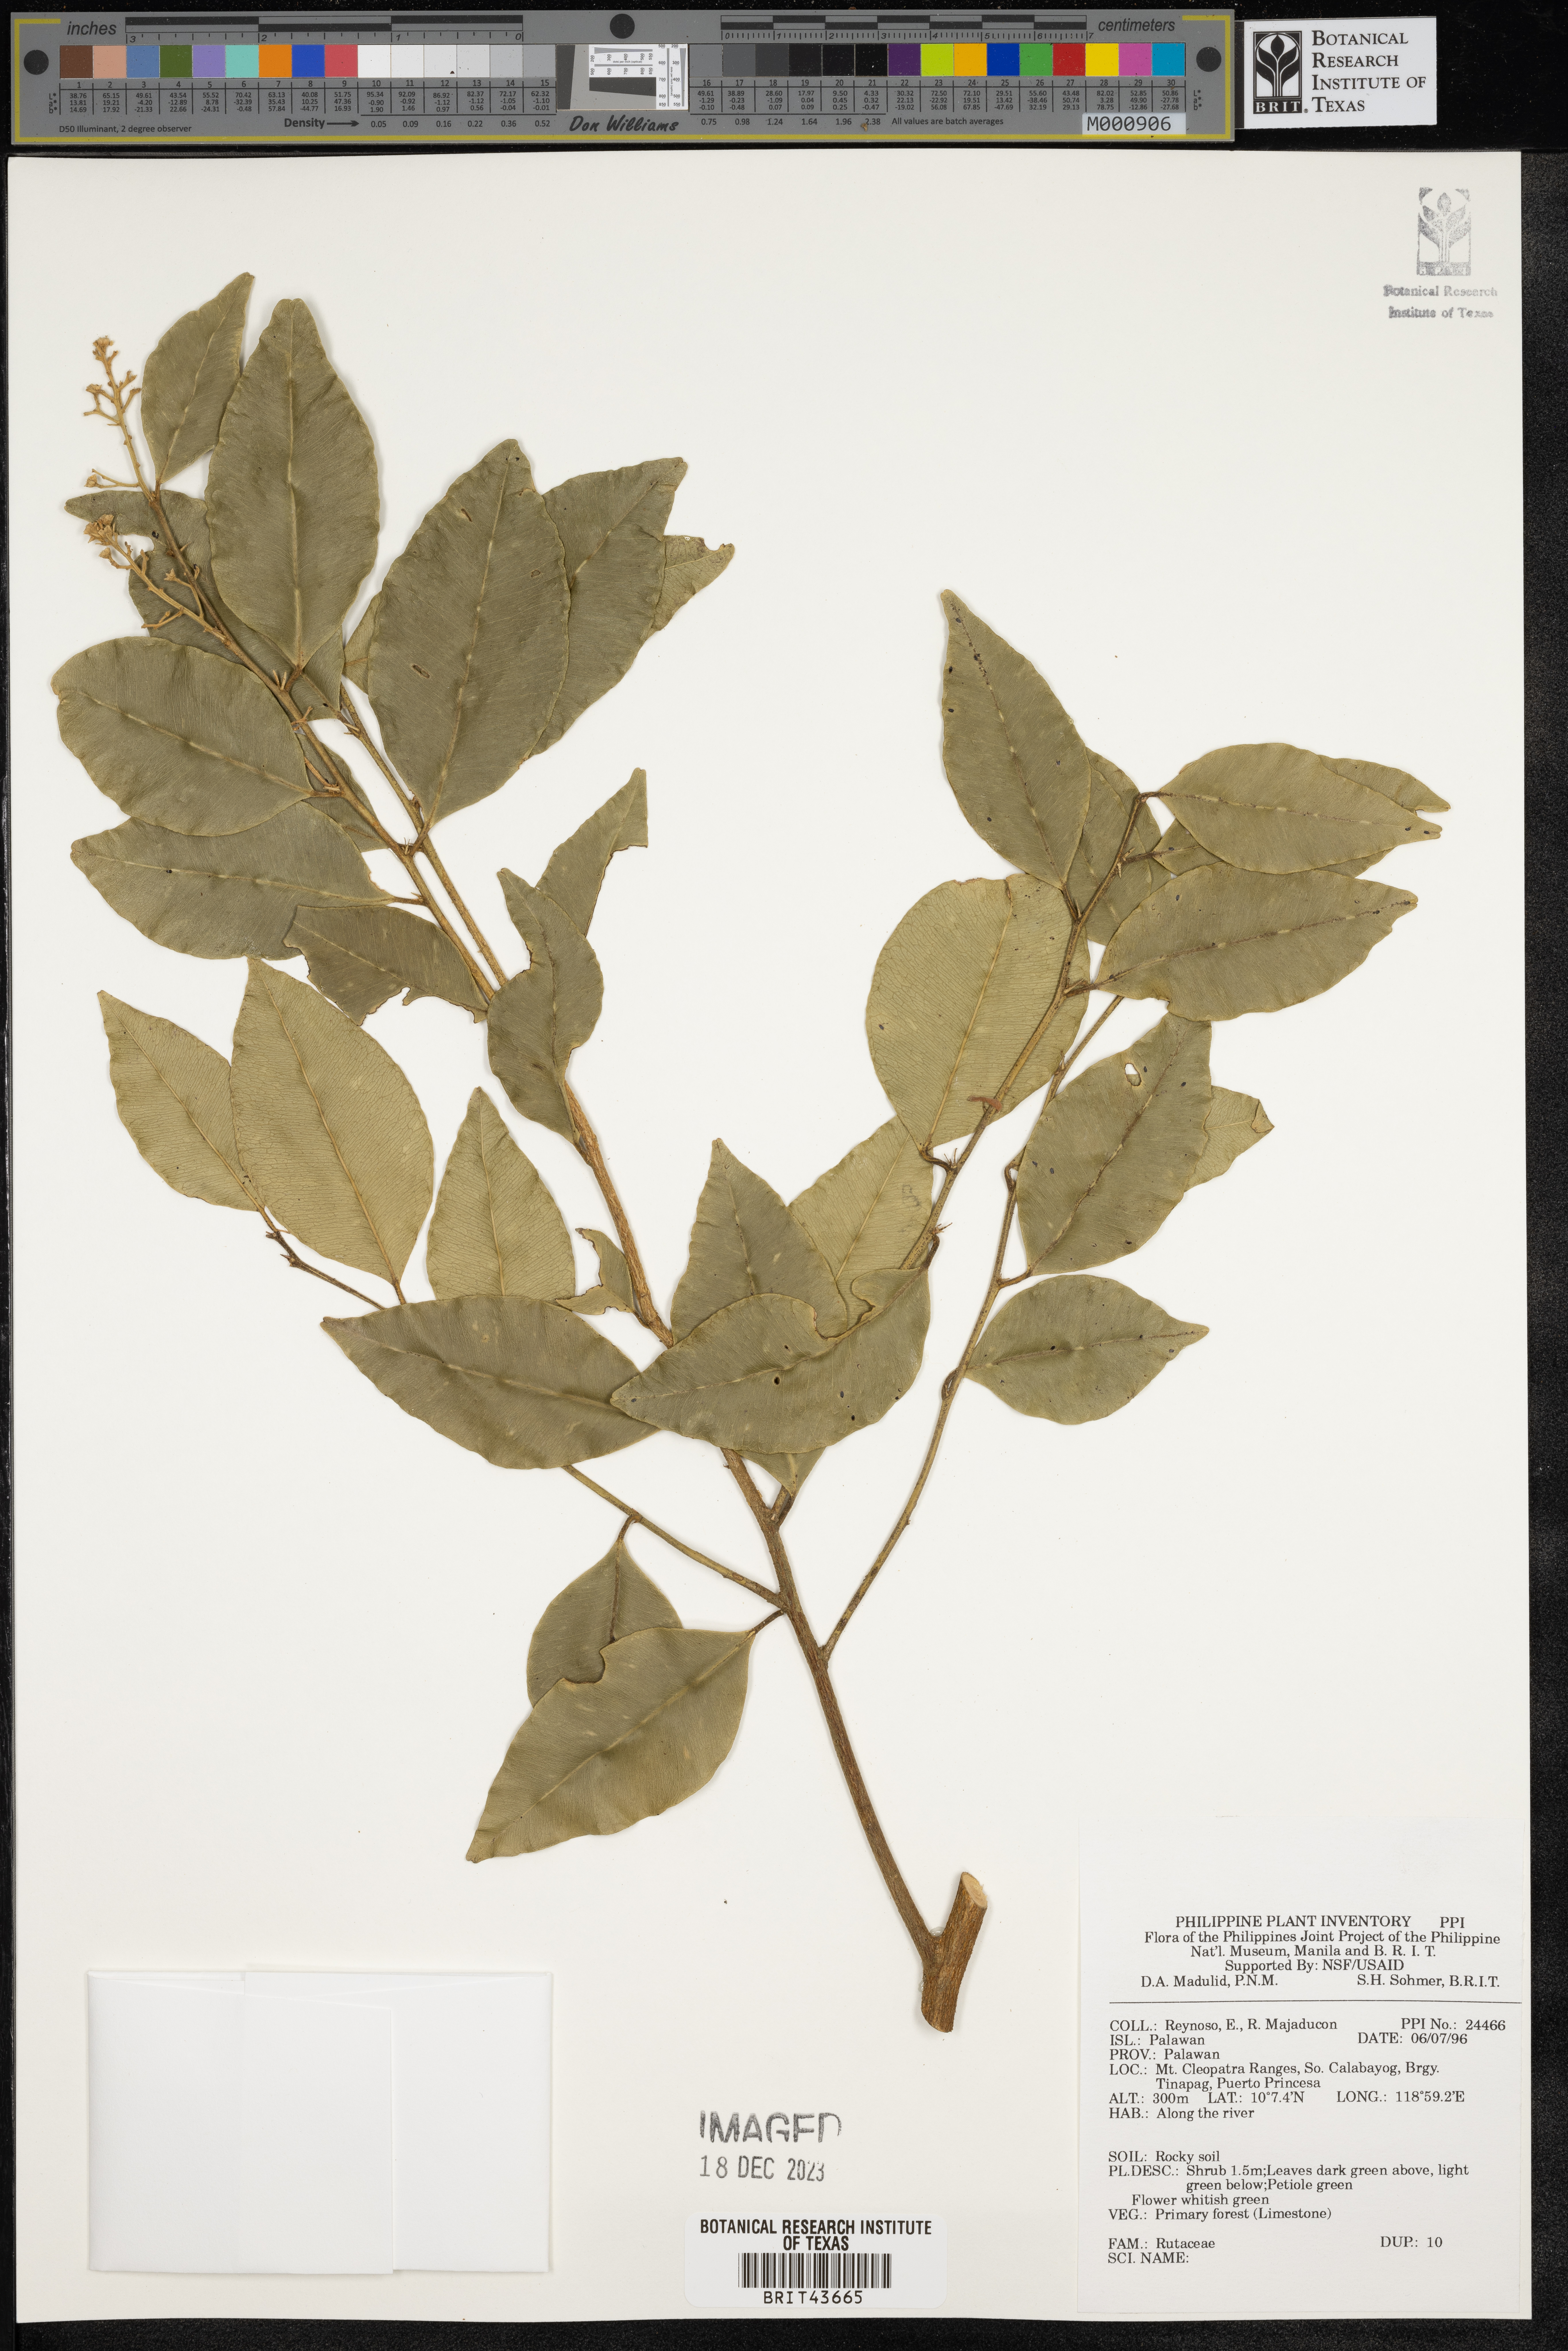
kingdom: Plantae
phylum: Tracheophyta
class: Magnoliopsida
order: Sapindales
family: Rutaceae
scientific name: Rutaceae
